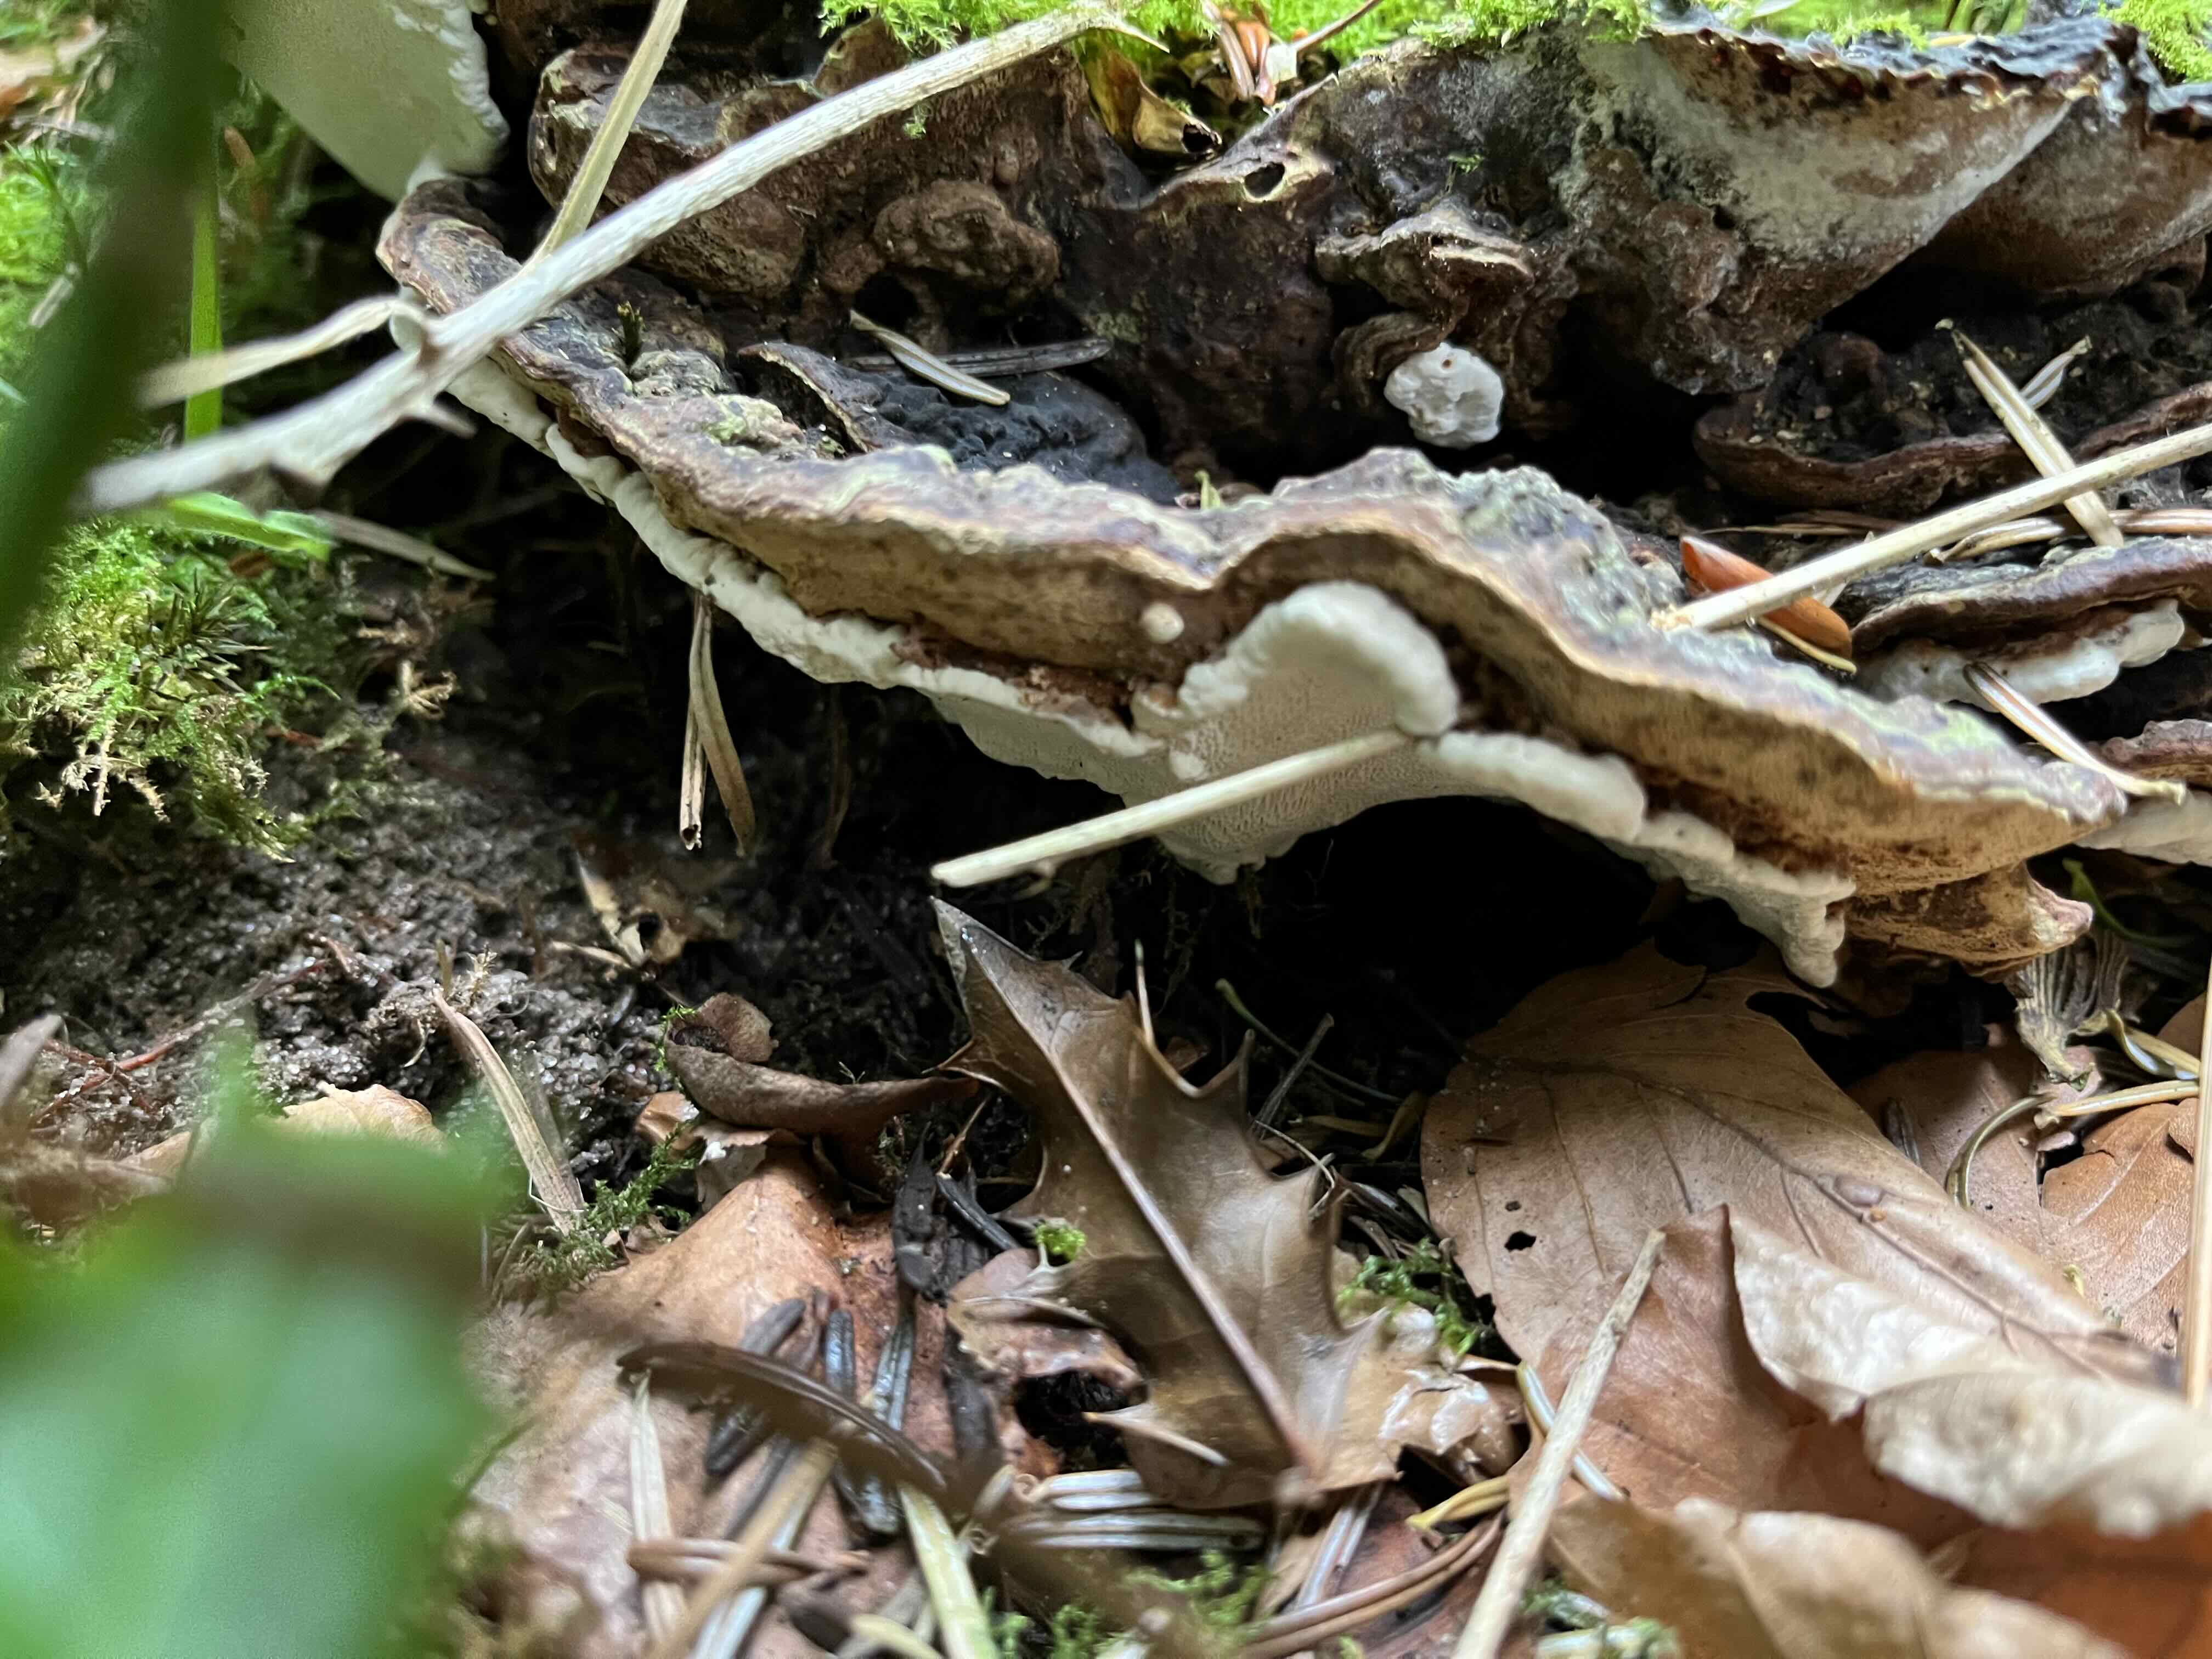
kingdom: Fungi
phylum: Basidiomycota
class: Agaricomycetes
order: Russulales
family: Bondarzewiaceae
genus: Heterobasidion
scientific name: Heterobasidion
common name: rodfordærver
